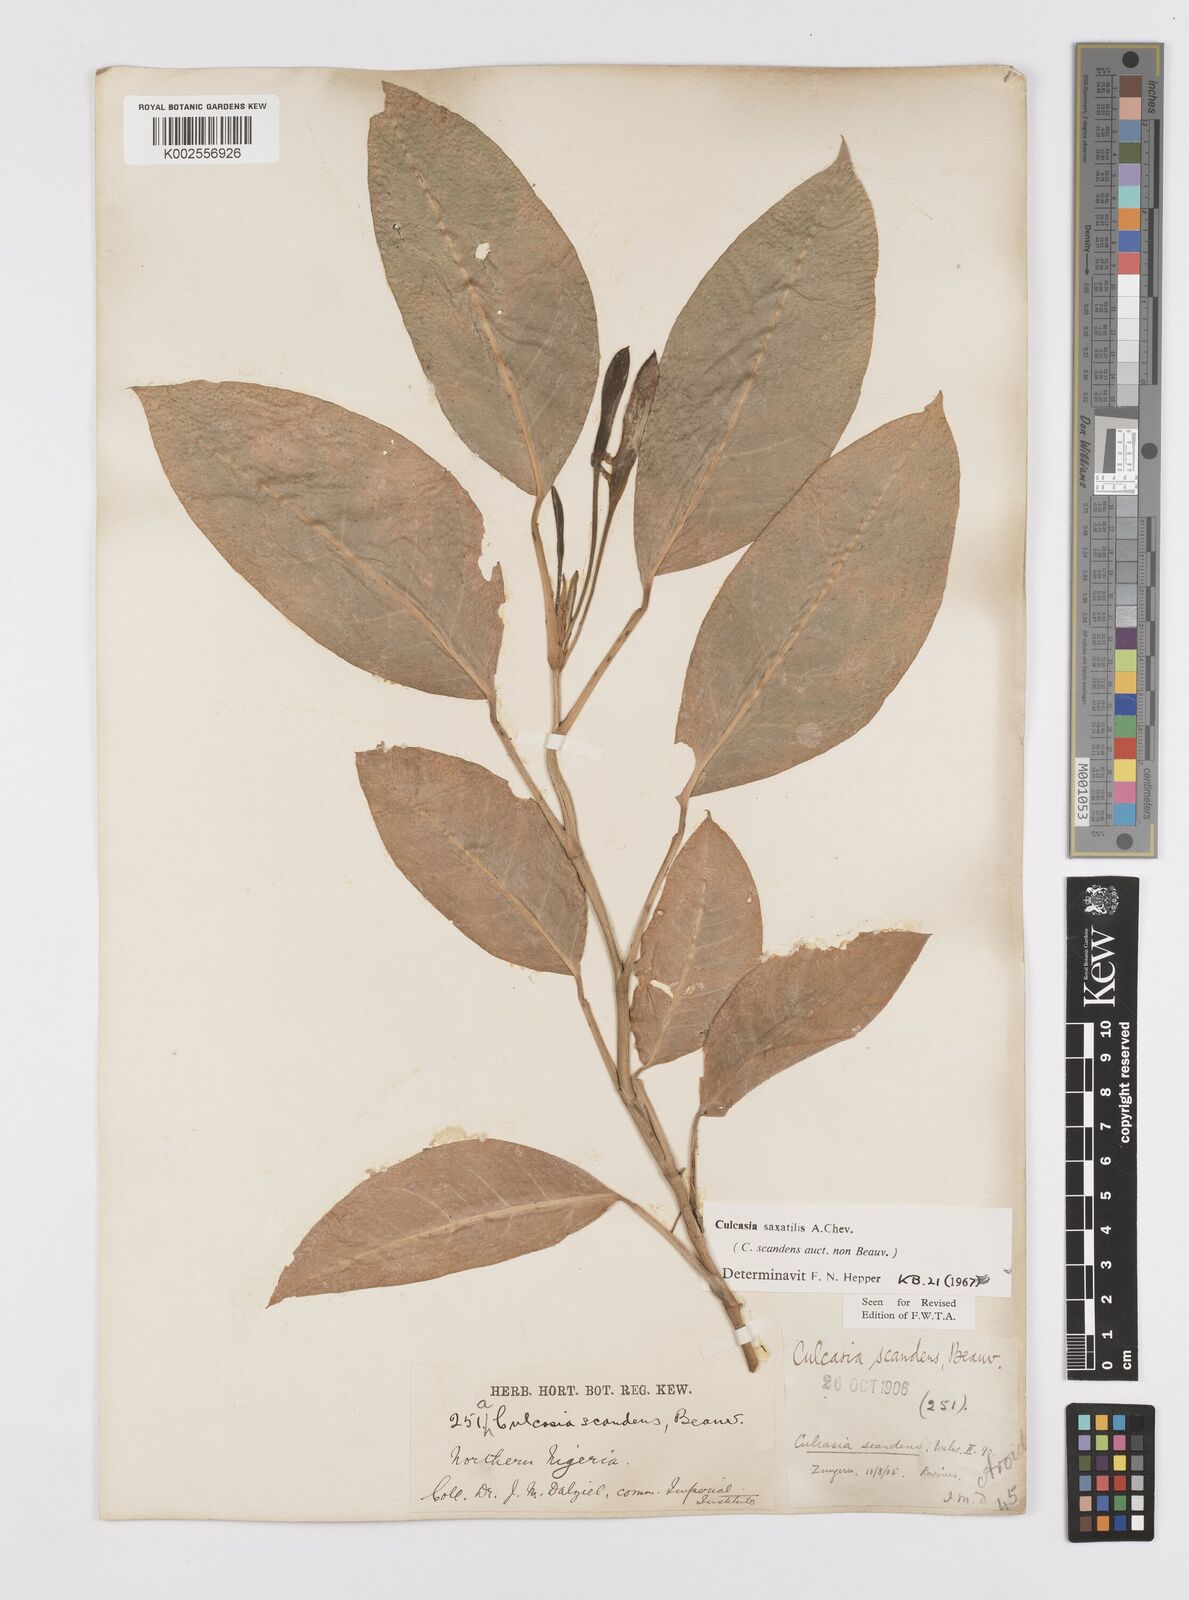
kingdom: Plantae
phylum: Tracheophyta
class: Liliopsida
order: Alismatales
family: Araceae
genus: Culcasia
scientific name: Culcasia scandens
